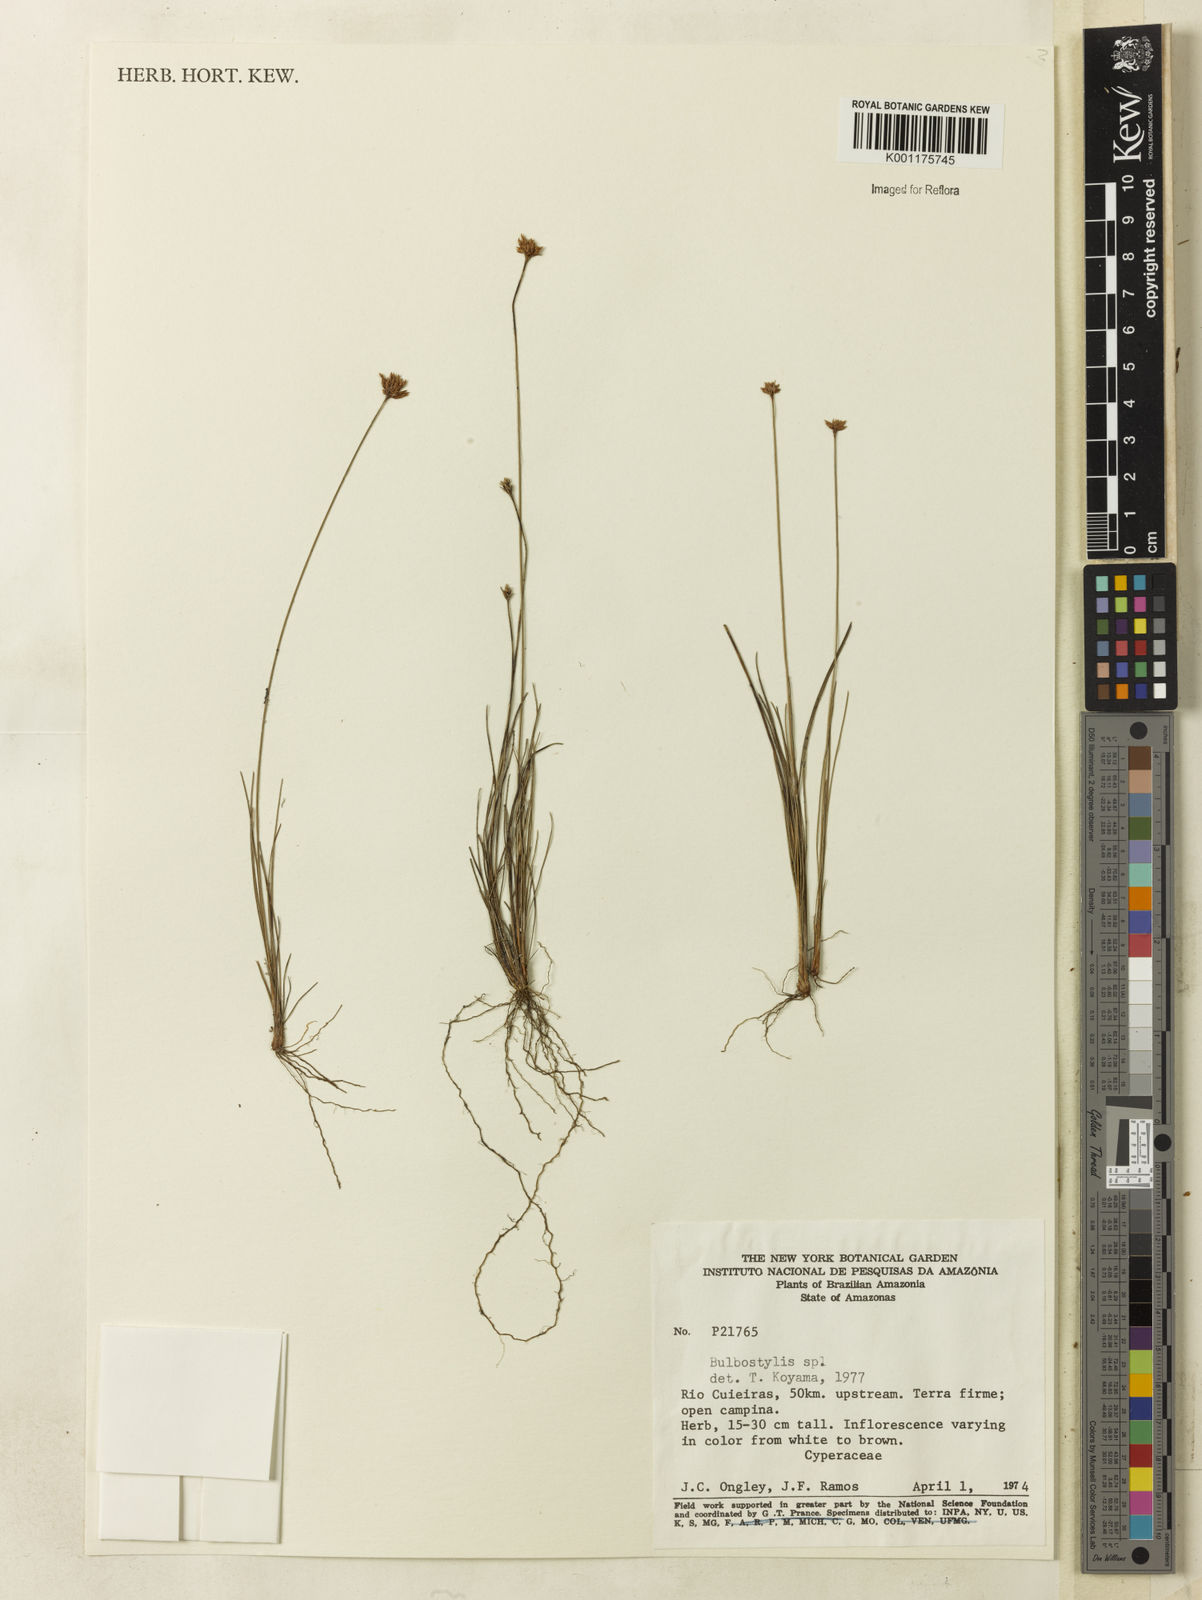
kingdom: Plantae
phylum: Tracheophyta
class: Liliopsida
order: Poales
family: Cyperaceae
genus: Bulbostylis
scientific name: Bulbostylis junciformis
